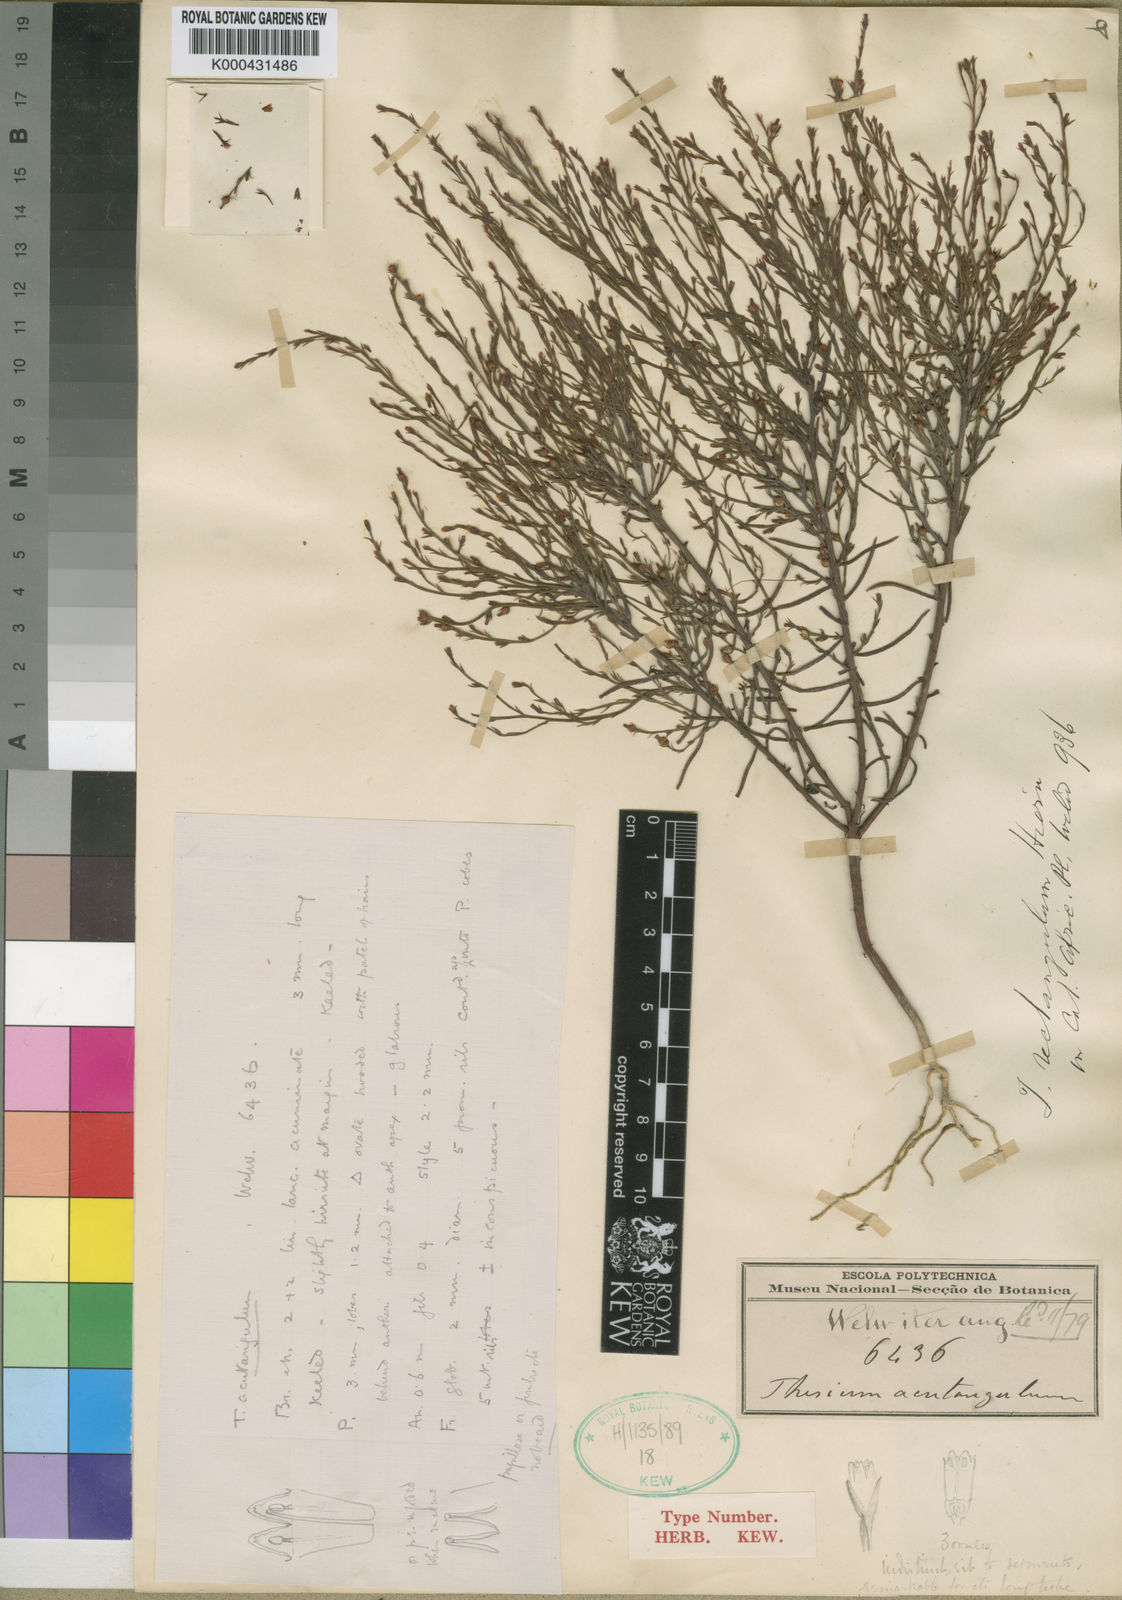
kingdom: Plantae
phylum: Tracheophyta
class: Magnoliopsida
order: Santalales
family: Thesiaceae
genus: Thesium
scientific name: Thesium rectangulum
